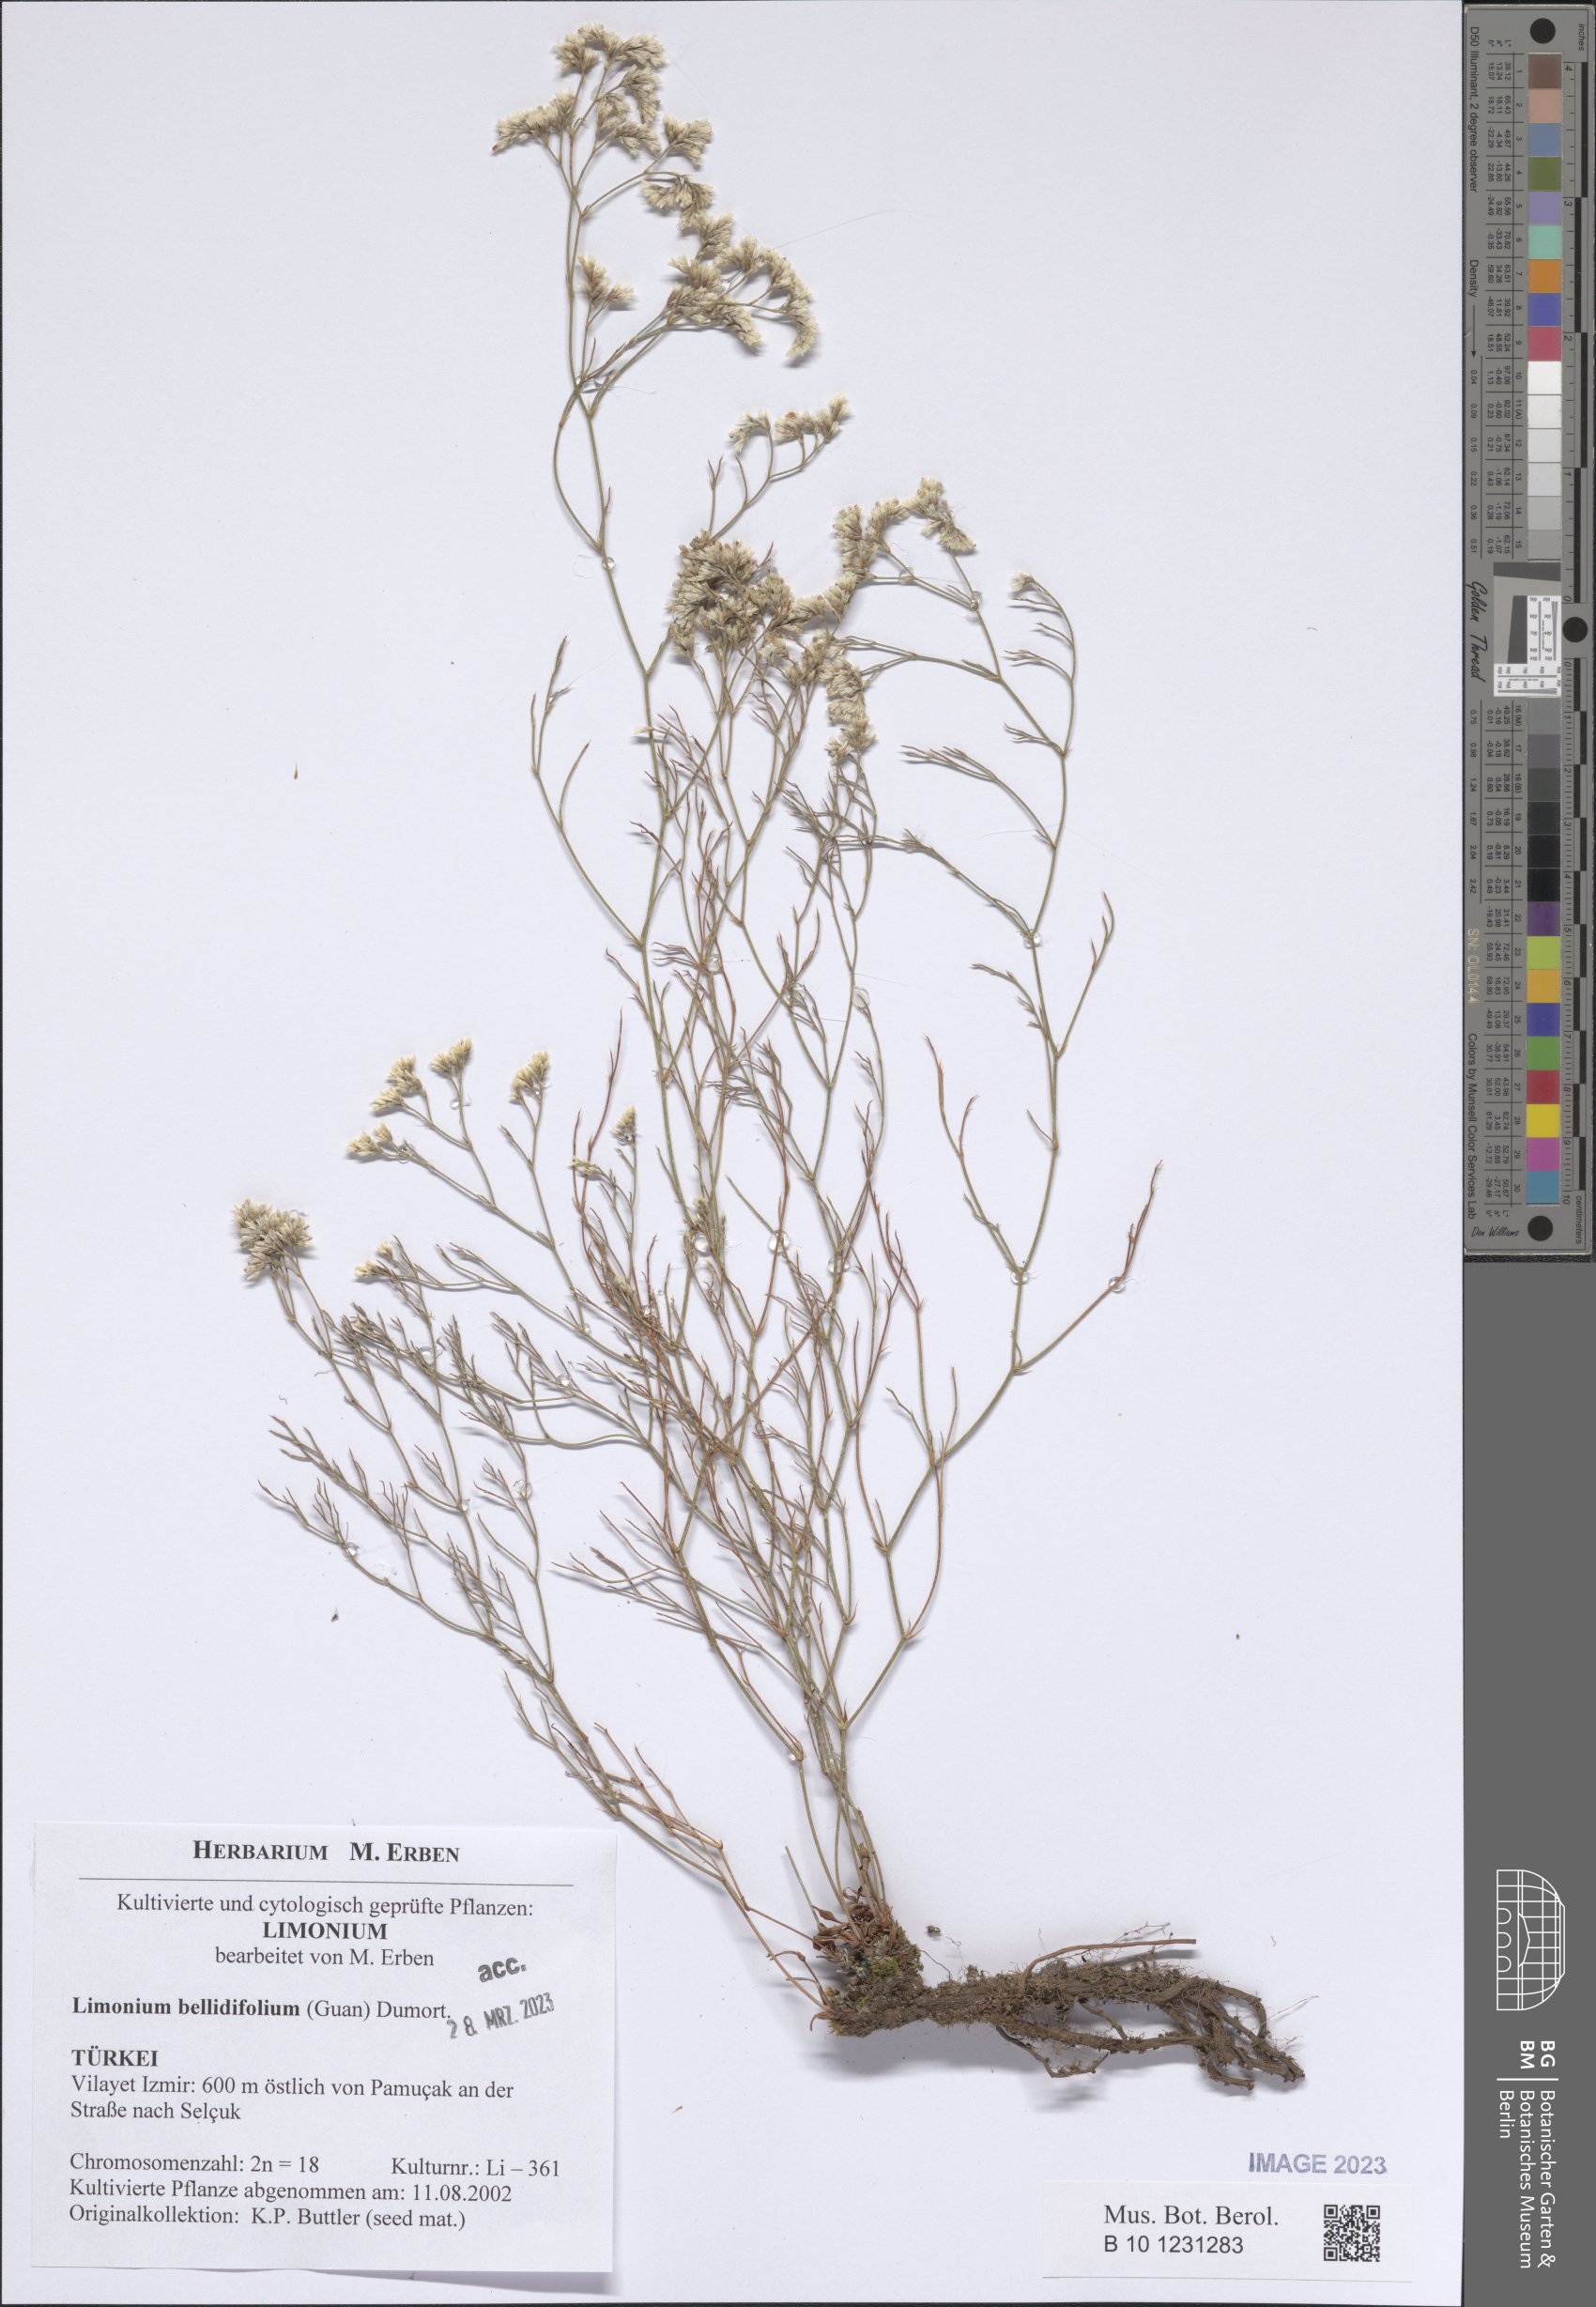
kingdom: Plantae
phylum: Tracheophyta
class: Magnoliopsida
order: Caryophyllales
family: Plumbaginaceae
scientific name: Plumbaginaceae
